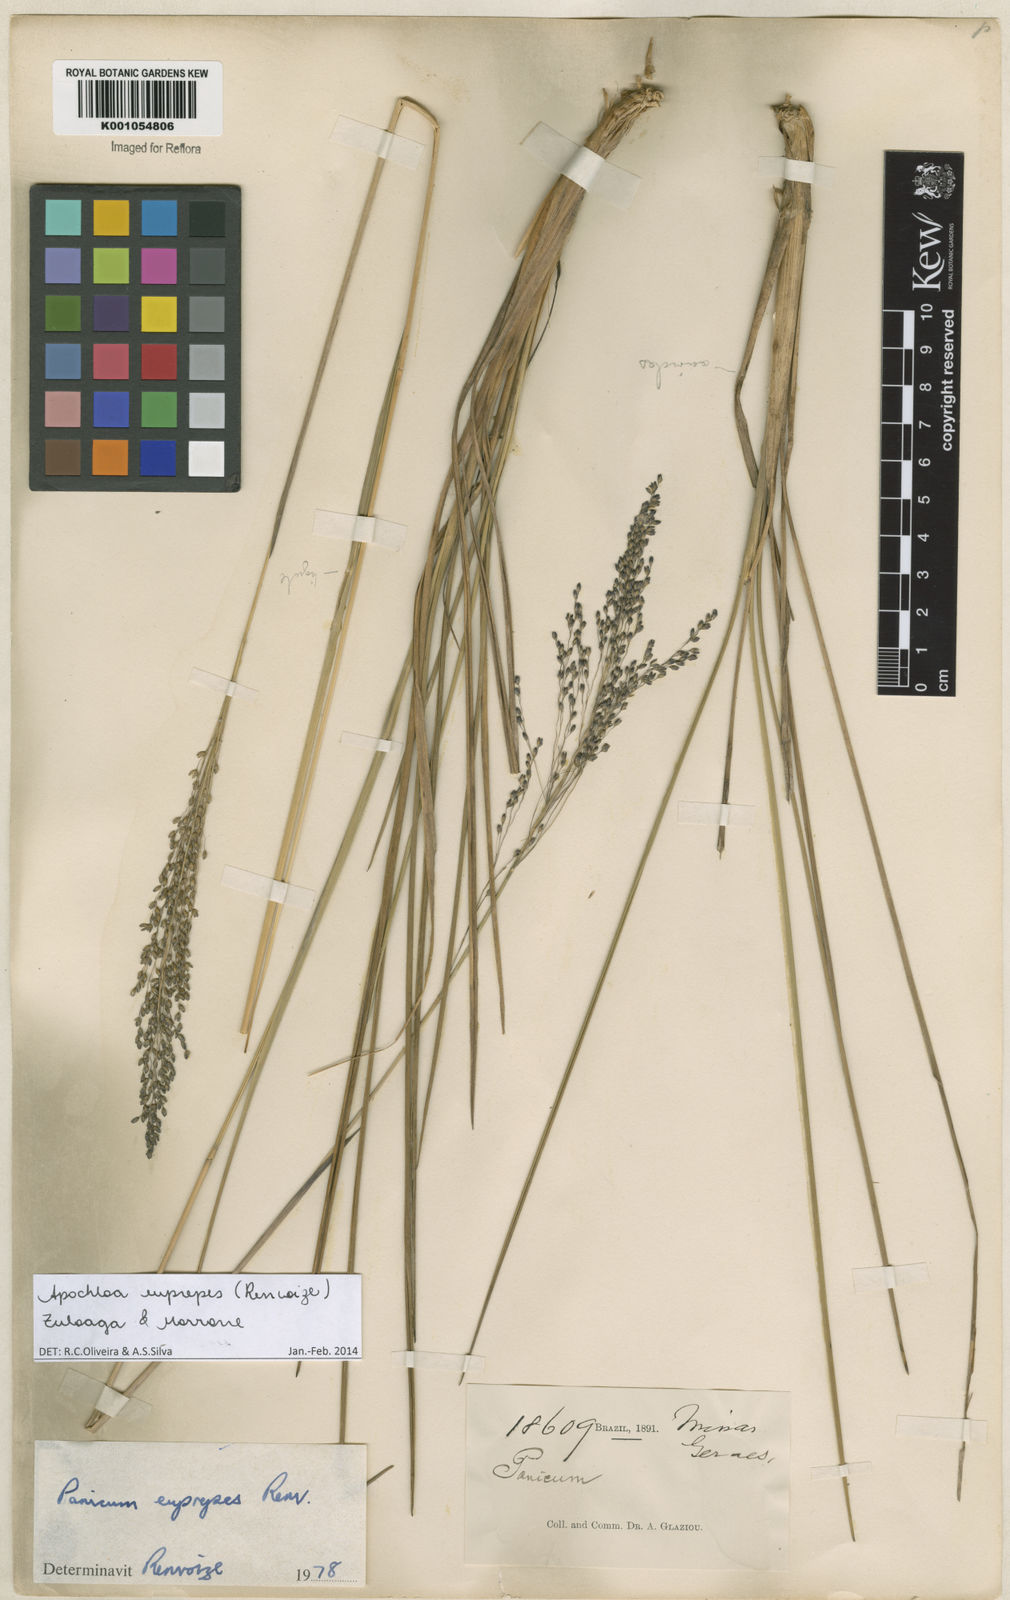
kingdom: Plantae
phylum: Tracheophyta
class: Liliopsida
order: Poales
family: Poaceae
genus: Apochloa
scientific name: Apochloa euprepes
